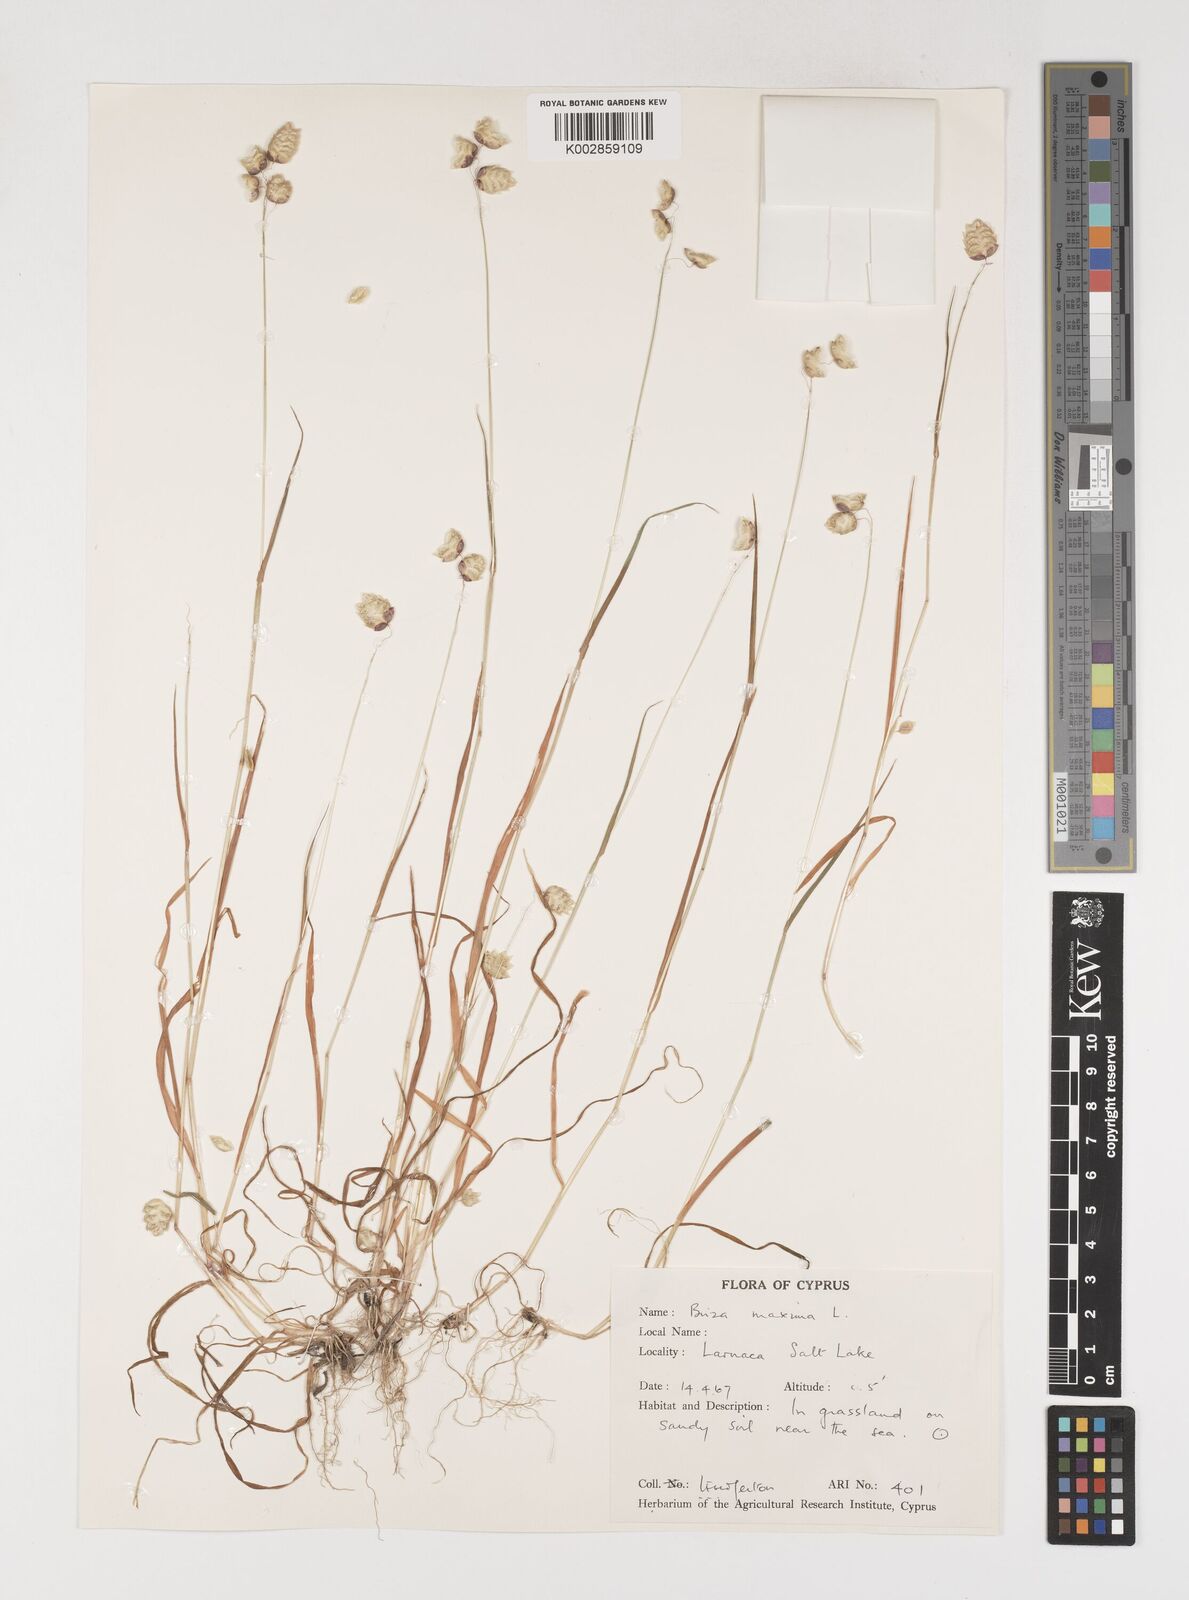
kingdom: Plantae
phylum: Tracheophyta
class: Liliopsida
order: Poales
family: Poaceae
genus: Briza
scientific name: Briza maxima
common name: Big quakinggrass
